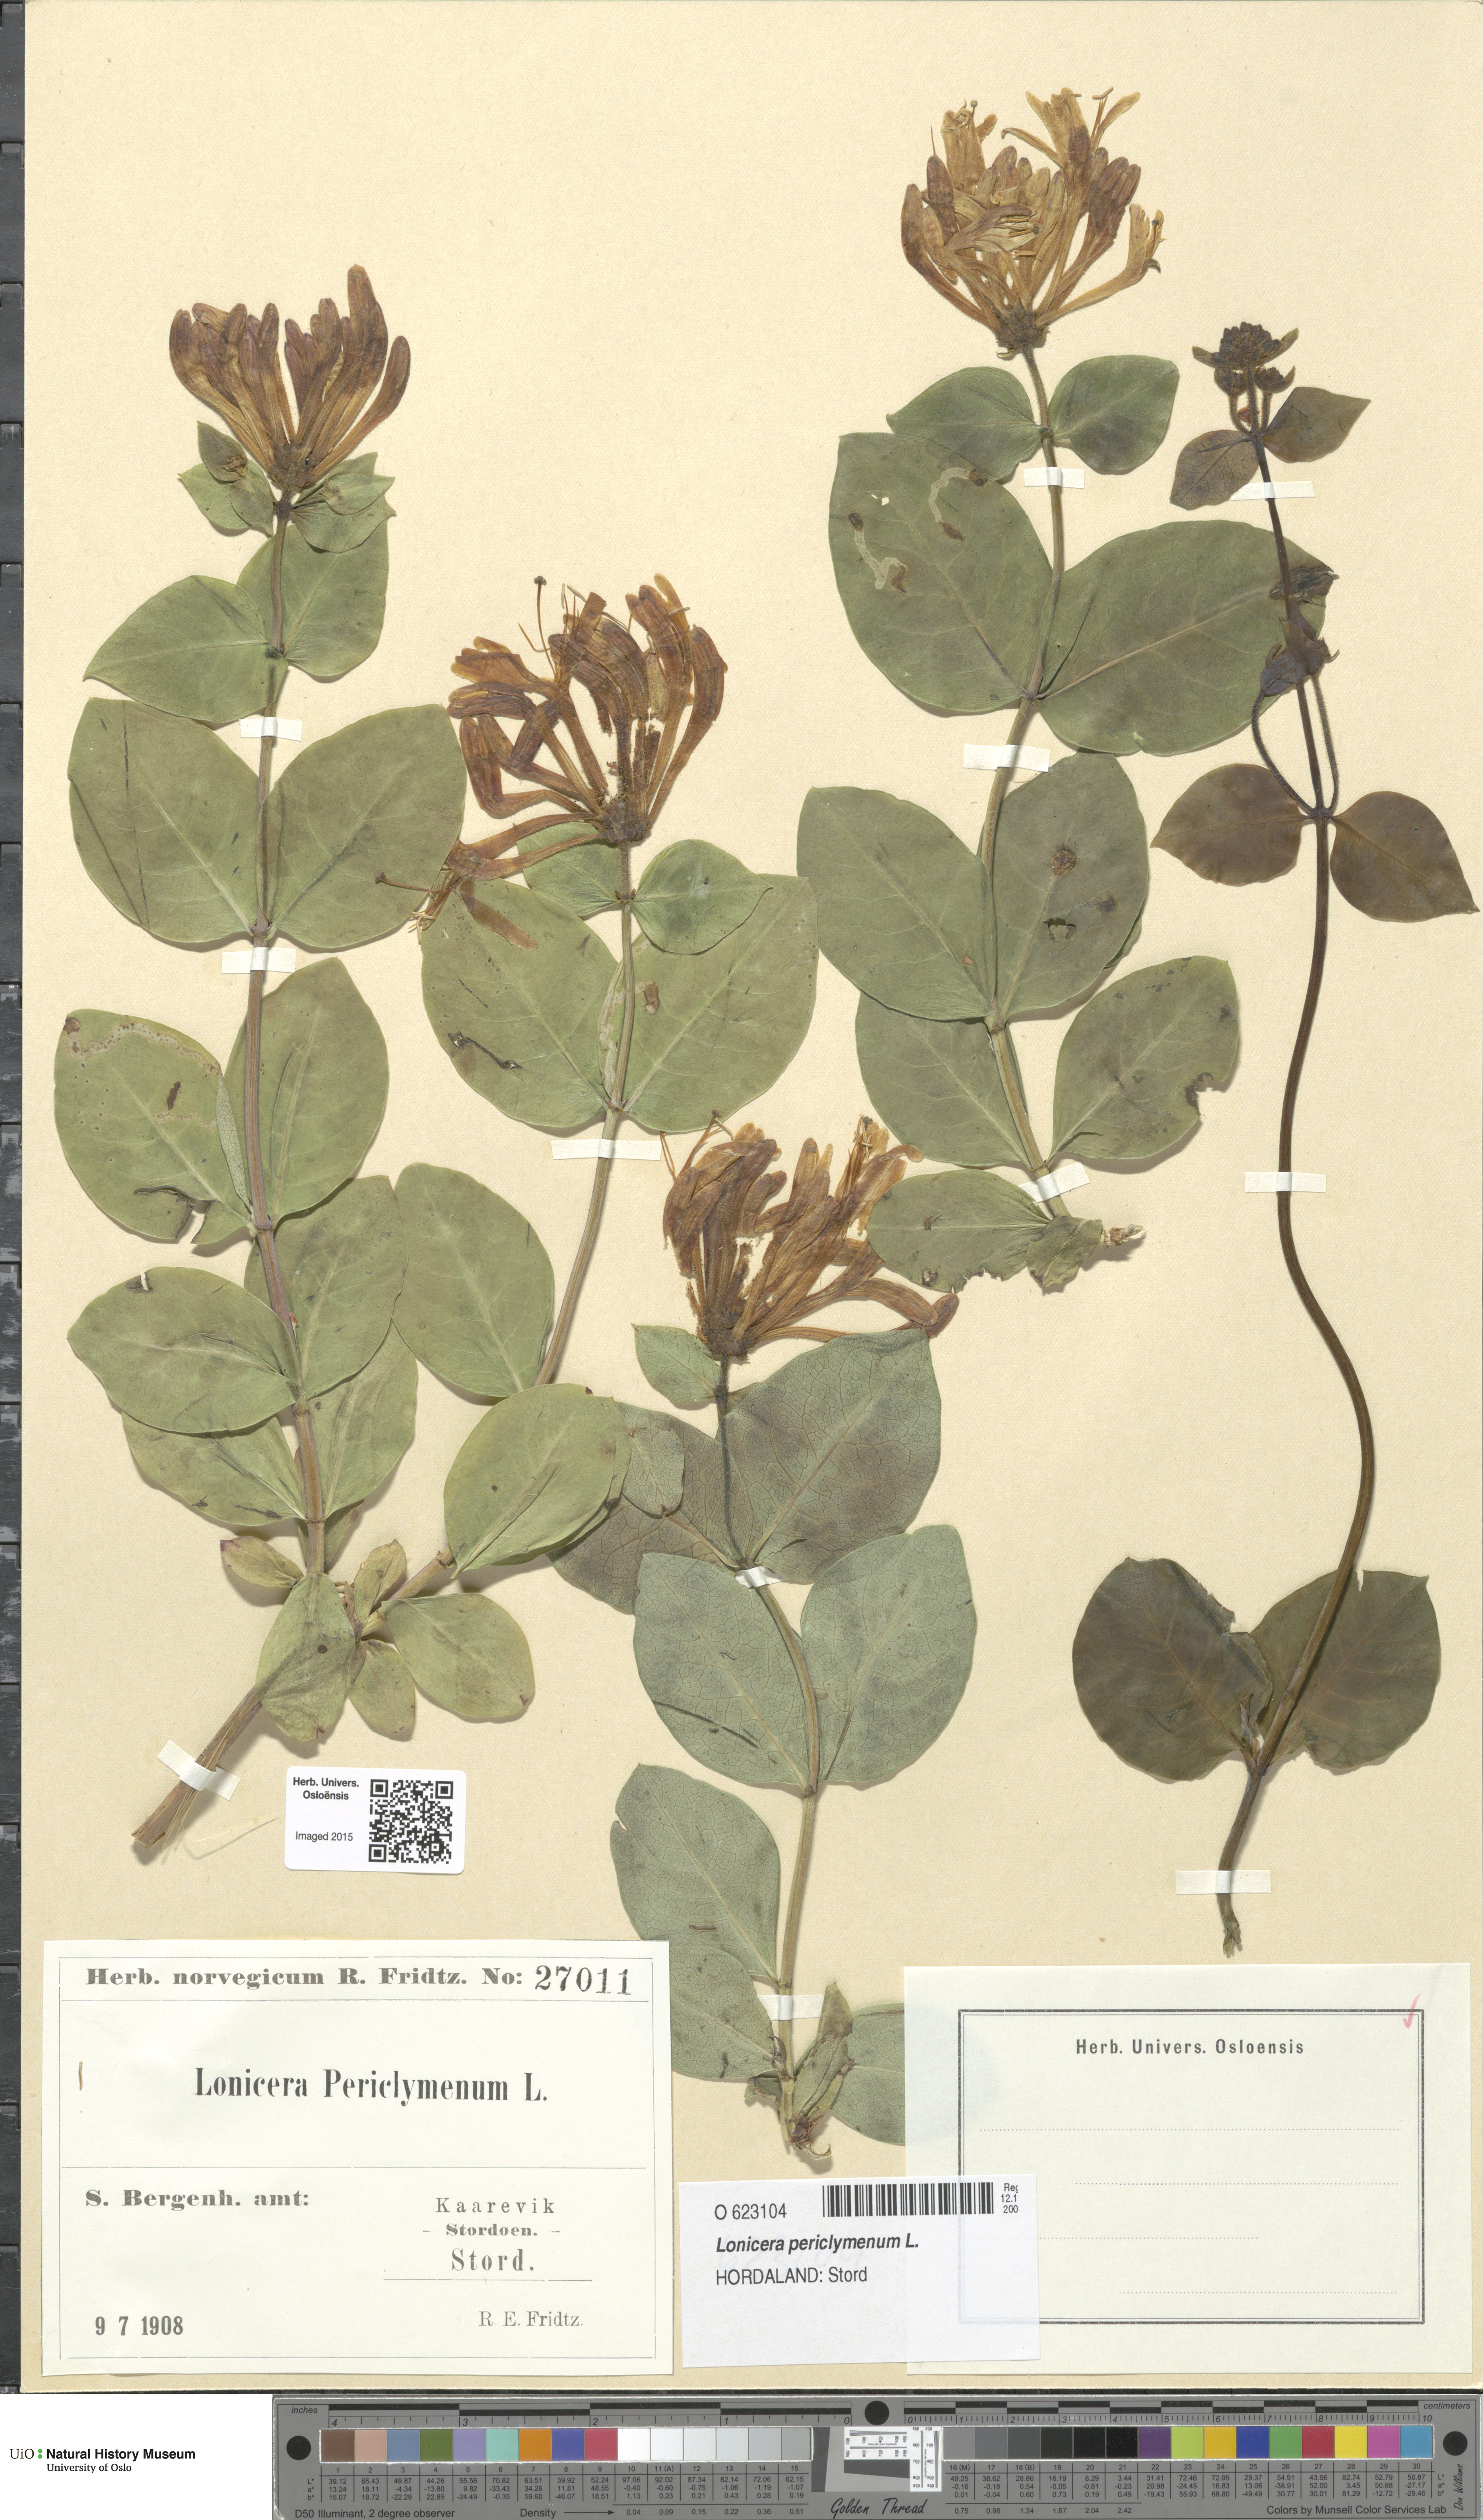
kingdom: Plantae
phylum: Tracheophyta
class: Magnoliopsida
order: Dipsacales
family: Caprifoliaceae
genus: Lonicera
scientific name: Lonicera periclymenum
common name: European honeysuckle
